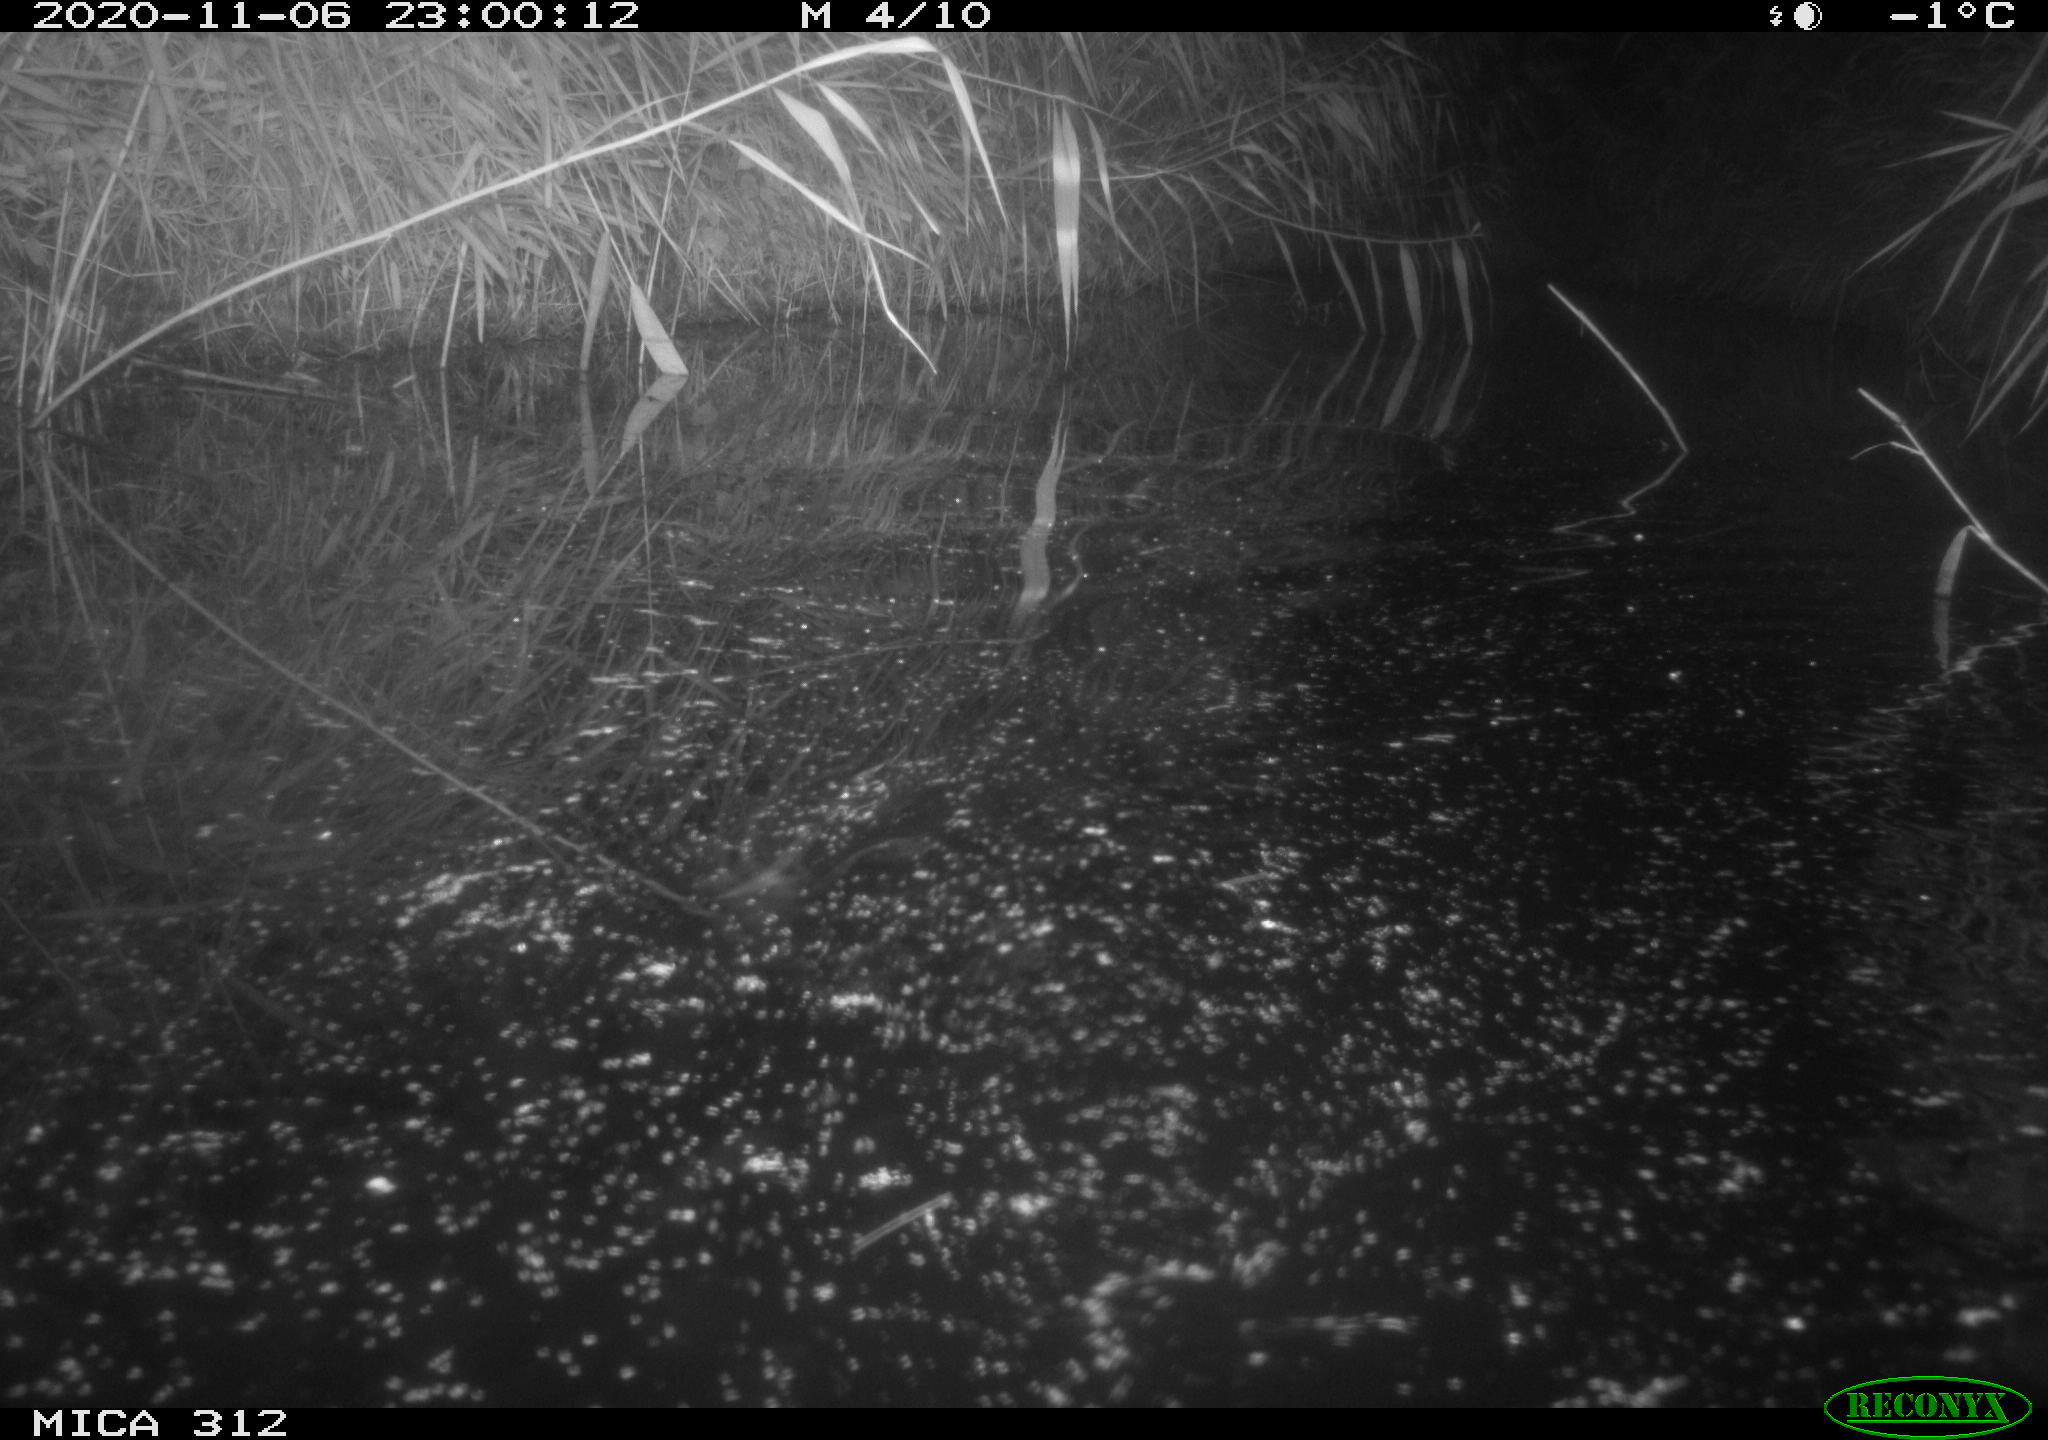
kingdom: Animalia
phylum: Chordata
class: Mammalia
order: Rodentia
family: Muridae
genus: Rattus
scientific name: Rattus norvegicus
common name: Brown rat
